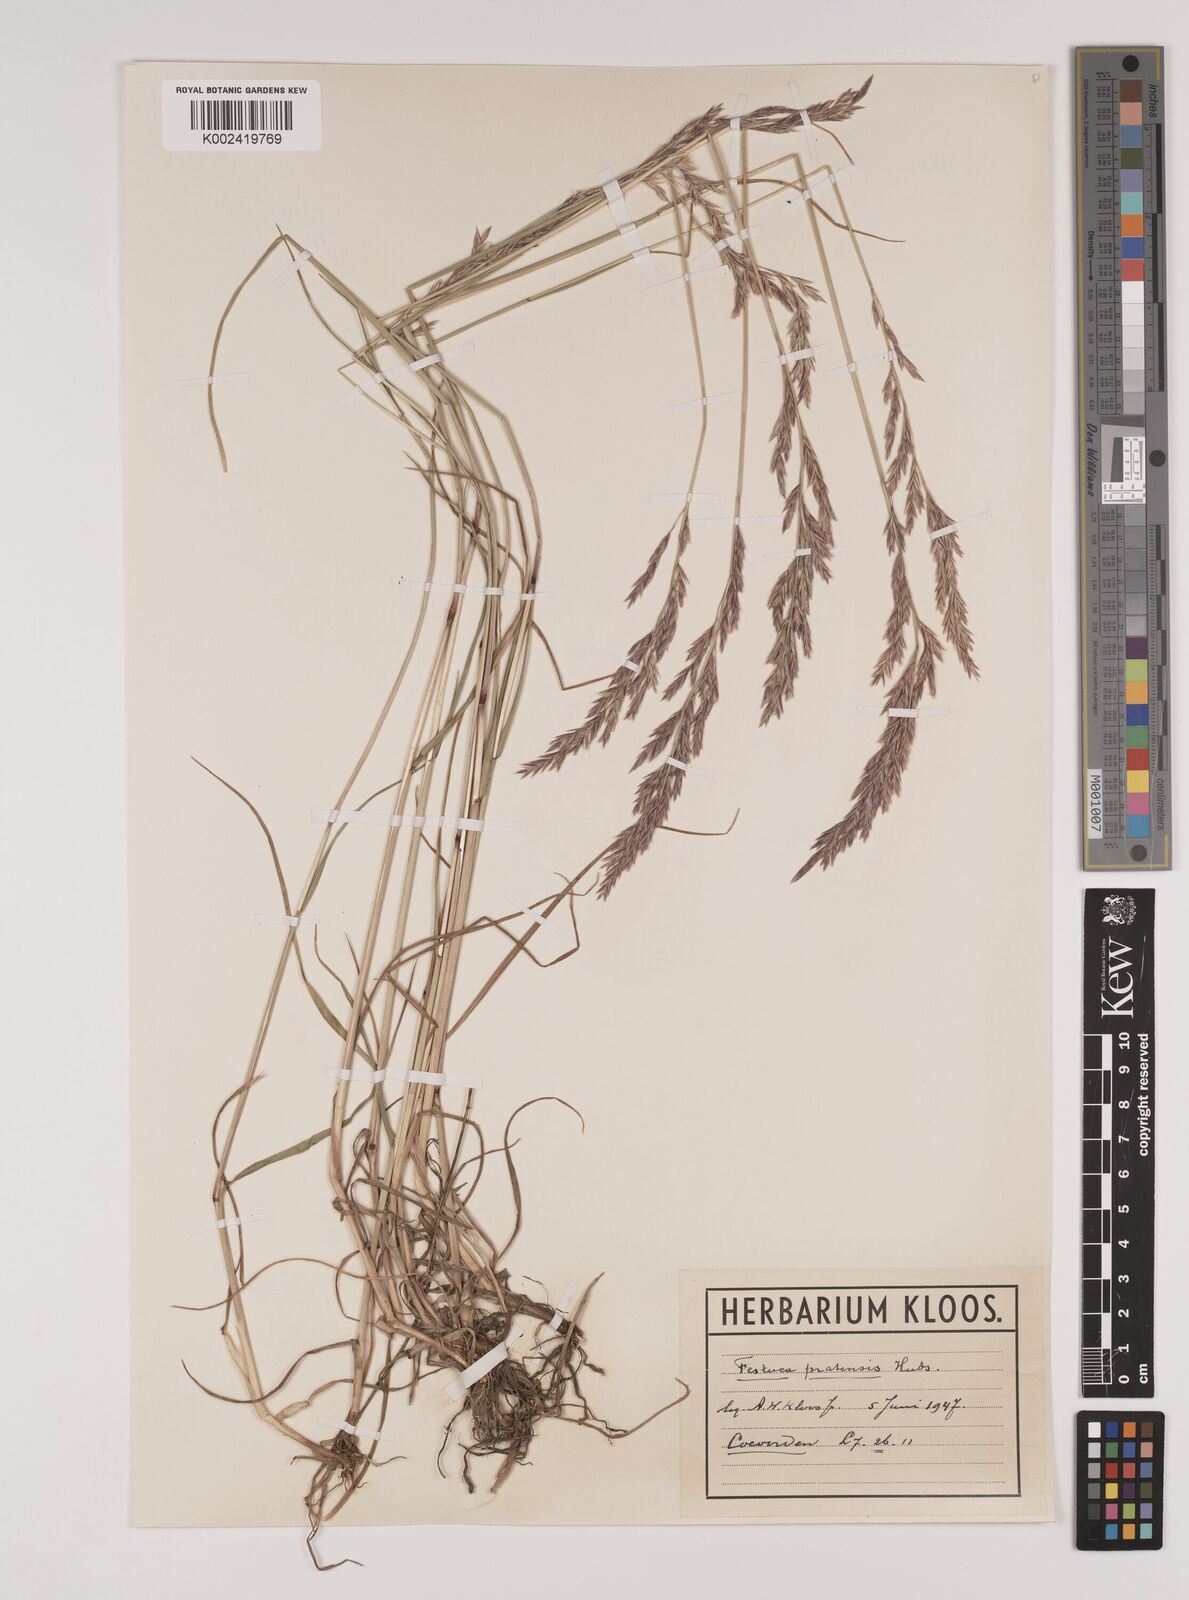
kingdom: Plantae
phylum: Tracheophyta
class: Liliopsida
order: Poales
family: Poaceae
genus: Lolium
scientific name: Lolium pratense
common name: Dover grass
